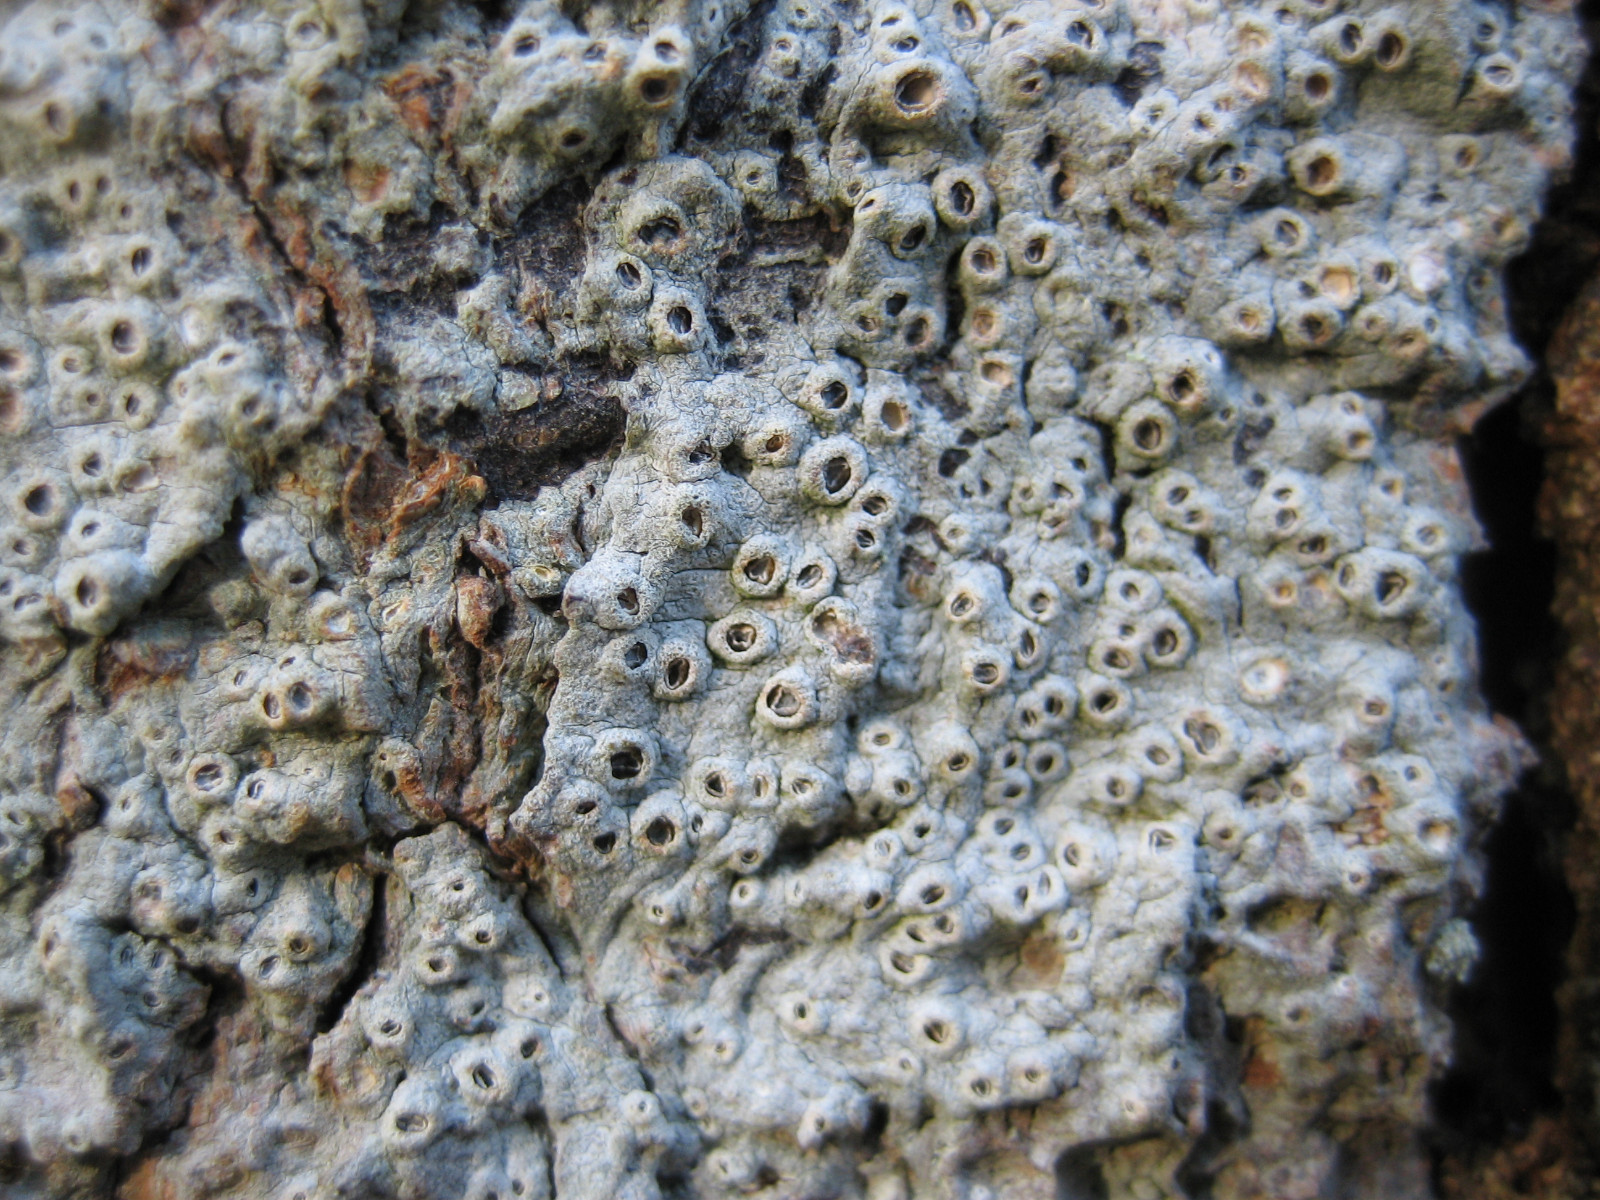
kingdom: Fungi
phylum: Ascomycota
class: Lecanoromycetes
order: Ostropales
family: Graphidaceae
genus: Thelotrema
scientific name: Thelotrema lepadinum
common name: almindelig slørkantlav
